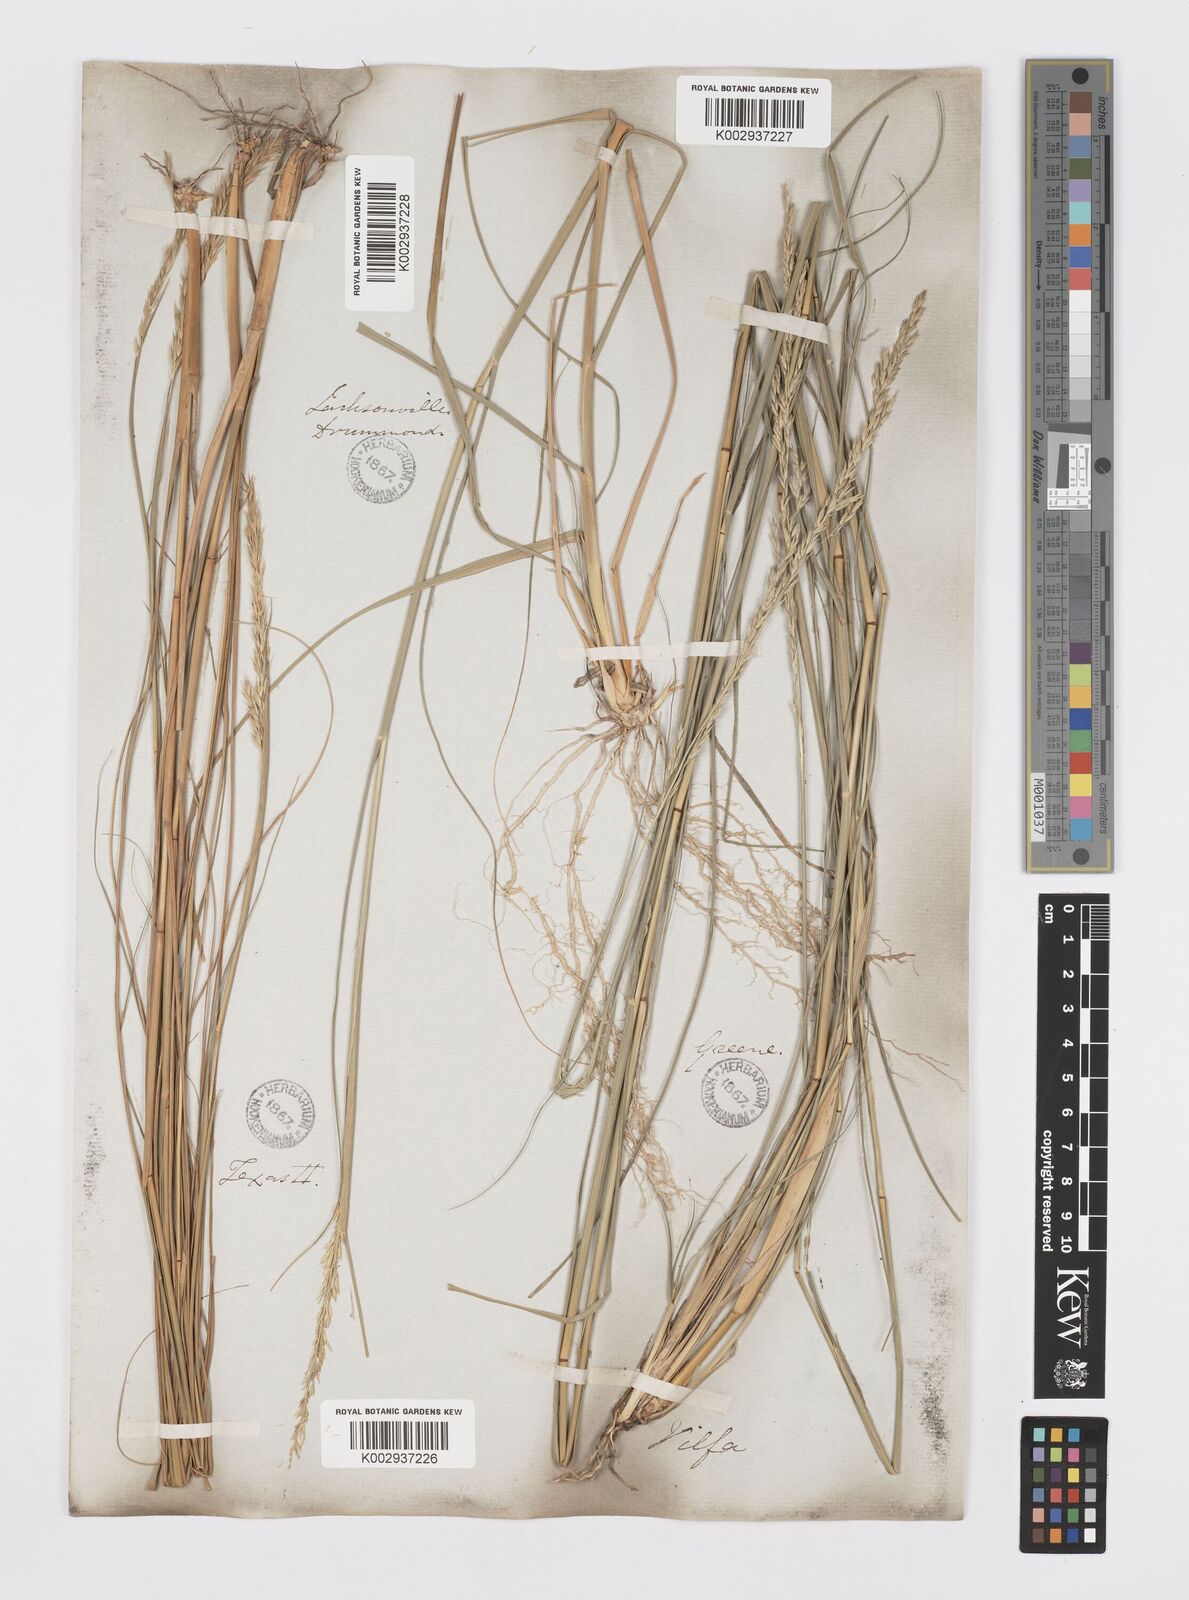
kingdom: Plantae
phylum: Tracheophyta
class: Liliopsida
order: Poales
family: Poaceae
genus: Sporobolus
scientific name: Sporobolus clandestinus
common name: Hidden dropseed
